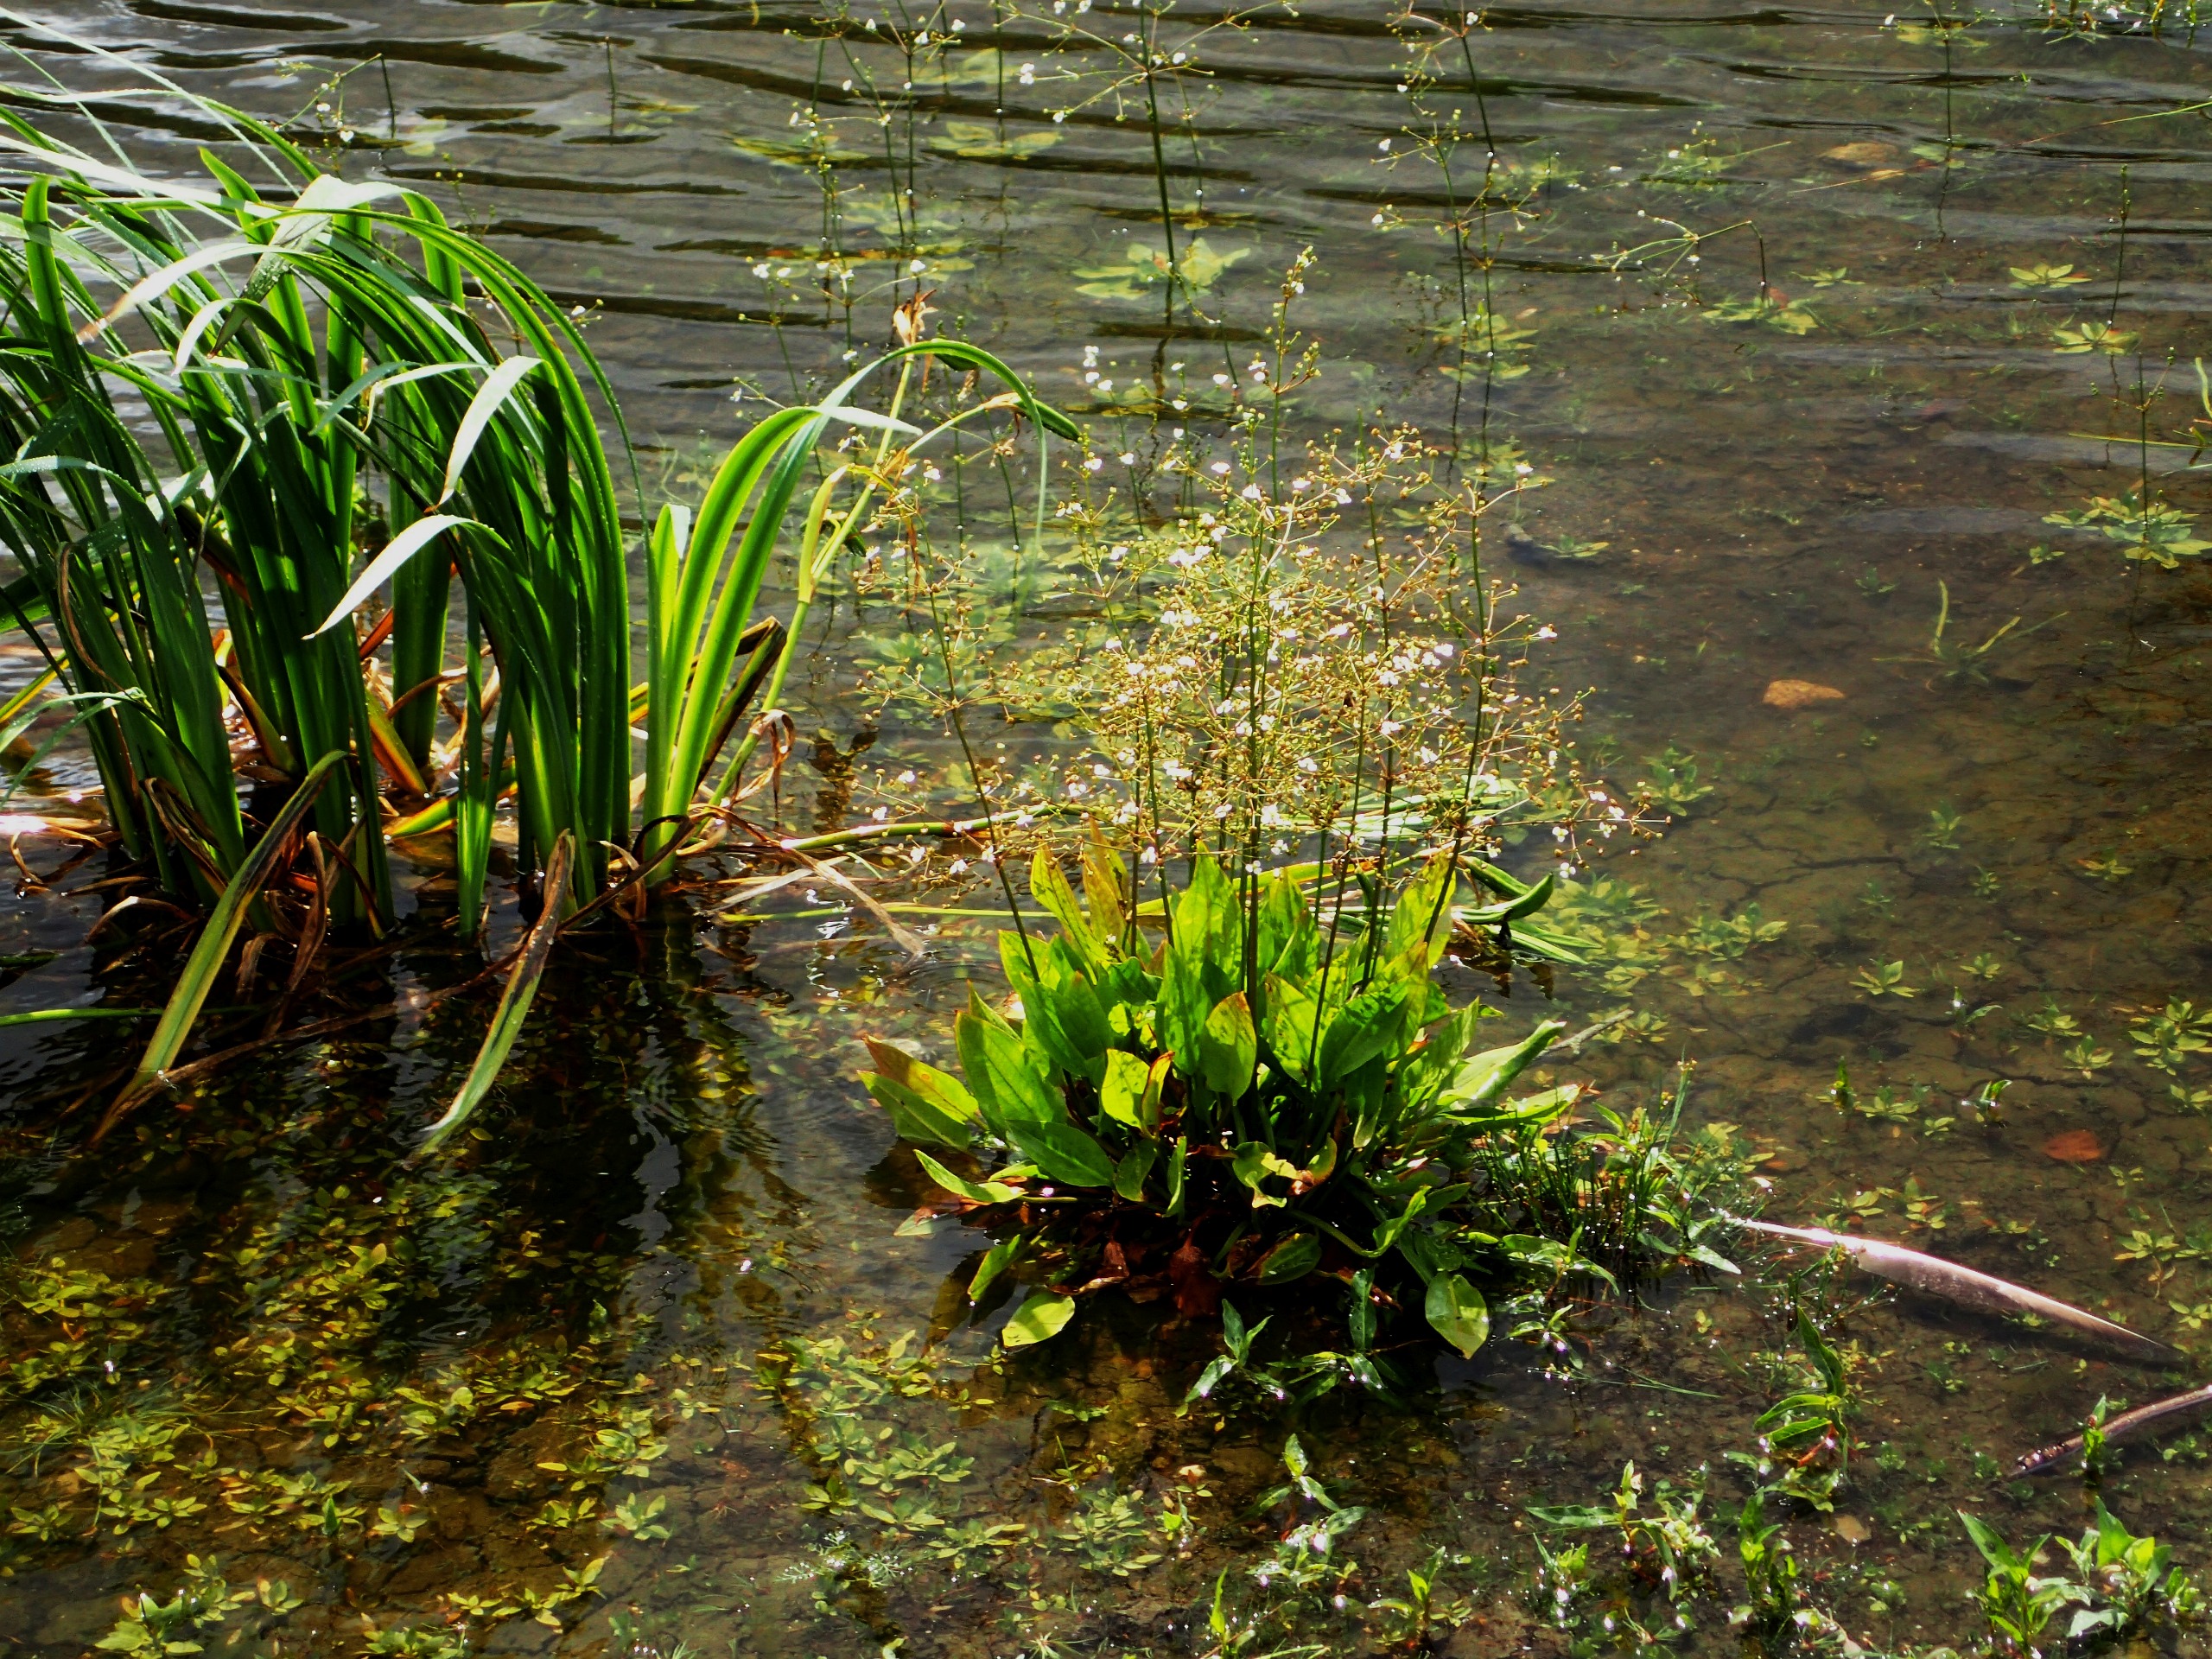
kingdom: Plantae
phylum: Tracheophyta
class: Liliopsida
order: Alismatales
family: Alismataceae
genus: Alisma
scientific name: Alisma plantago-aquatica
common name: Vejbred-skeblad
